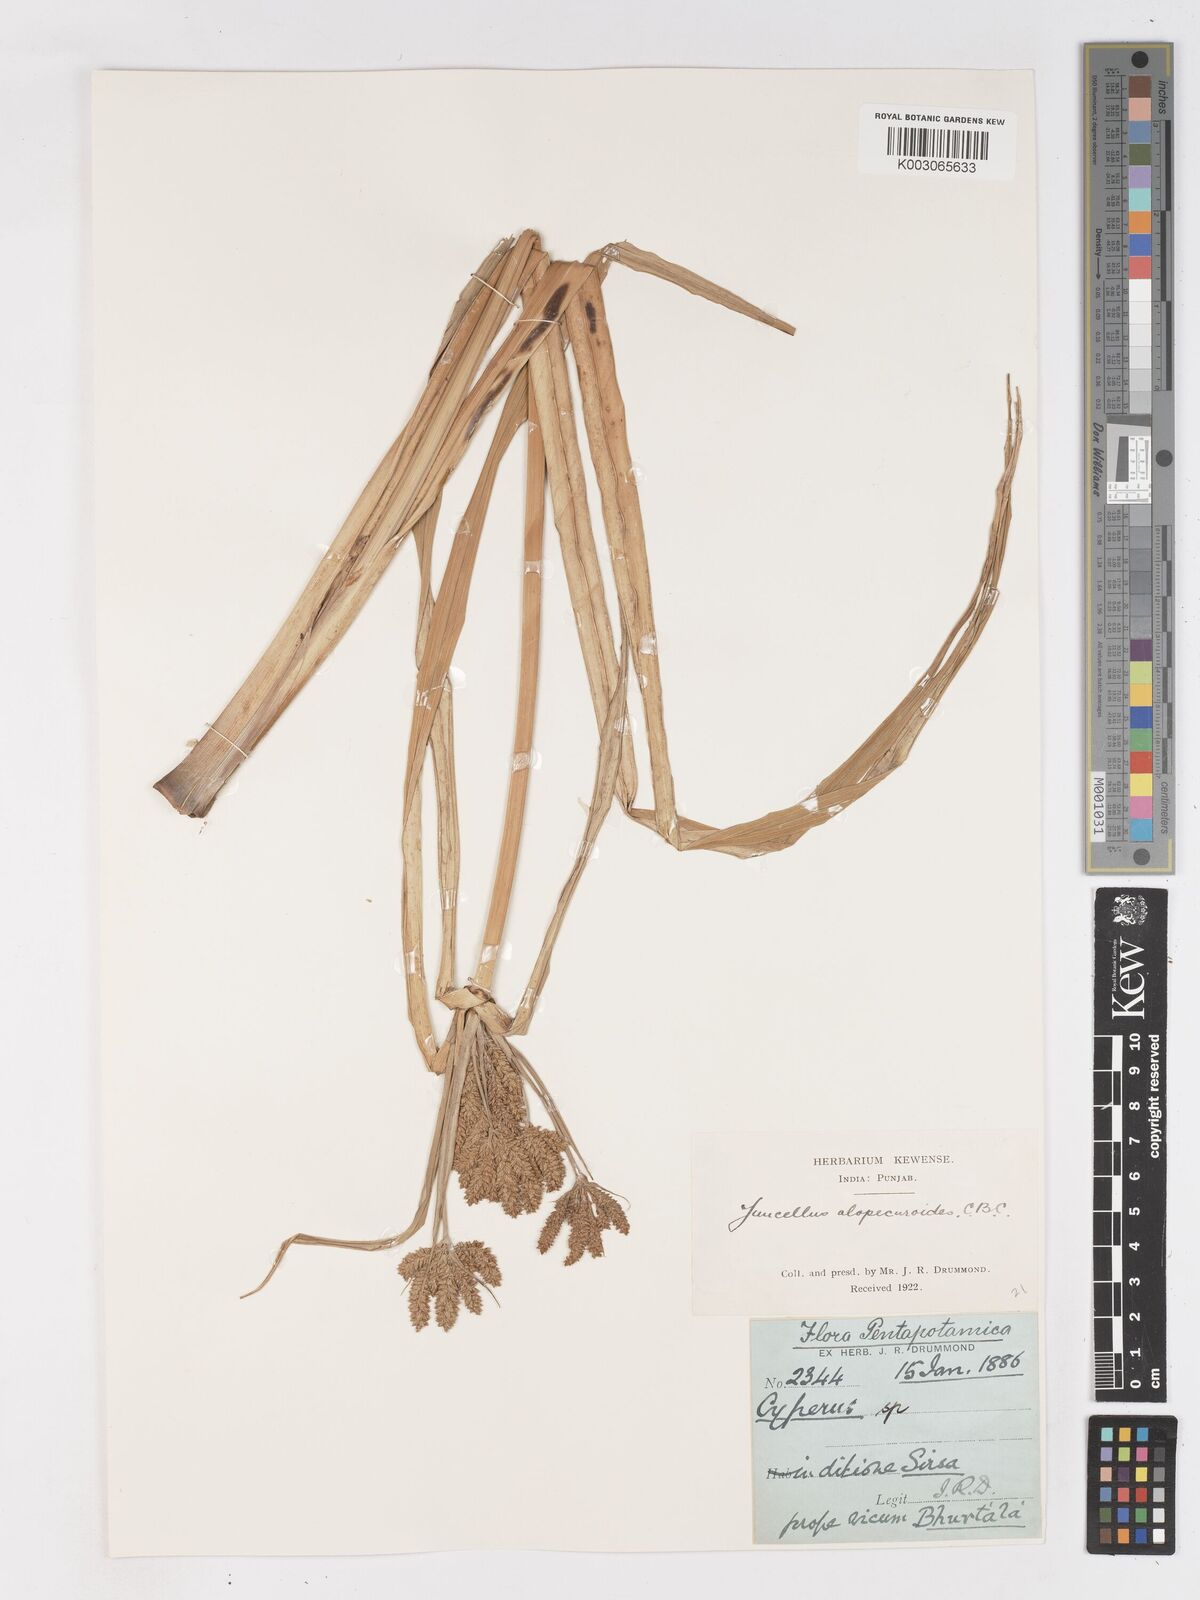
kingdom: Plantae
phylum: Tracheophyta
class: Liliopsida
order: Poales
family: Cyperaceae
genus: Cyperus
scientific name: Cyperus alopecuroides
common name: Foxtail flatsedge
